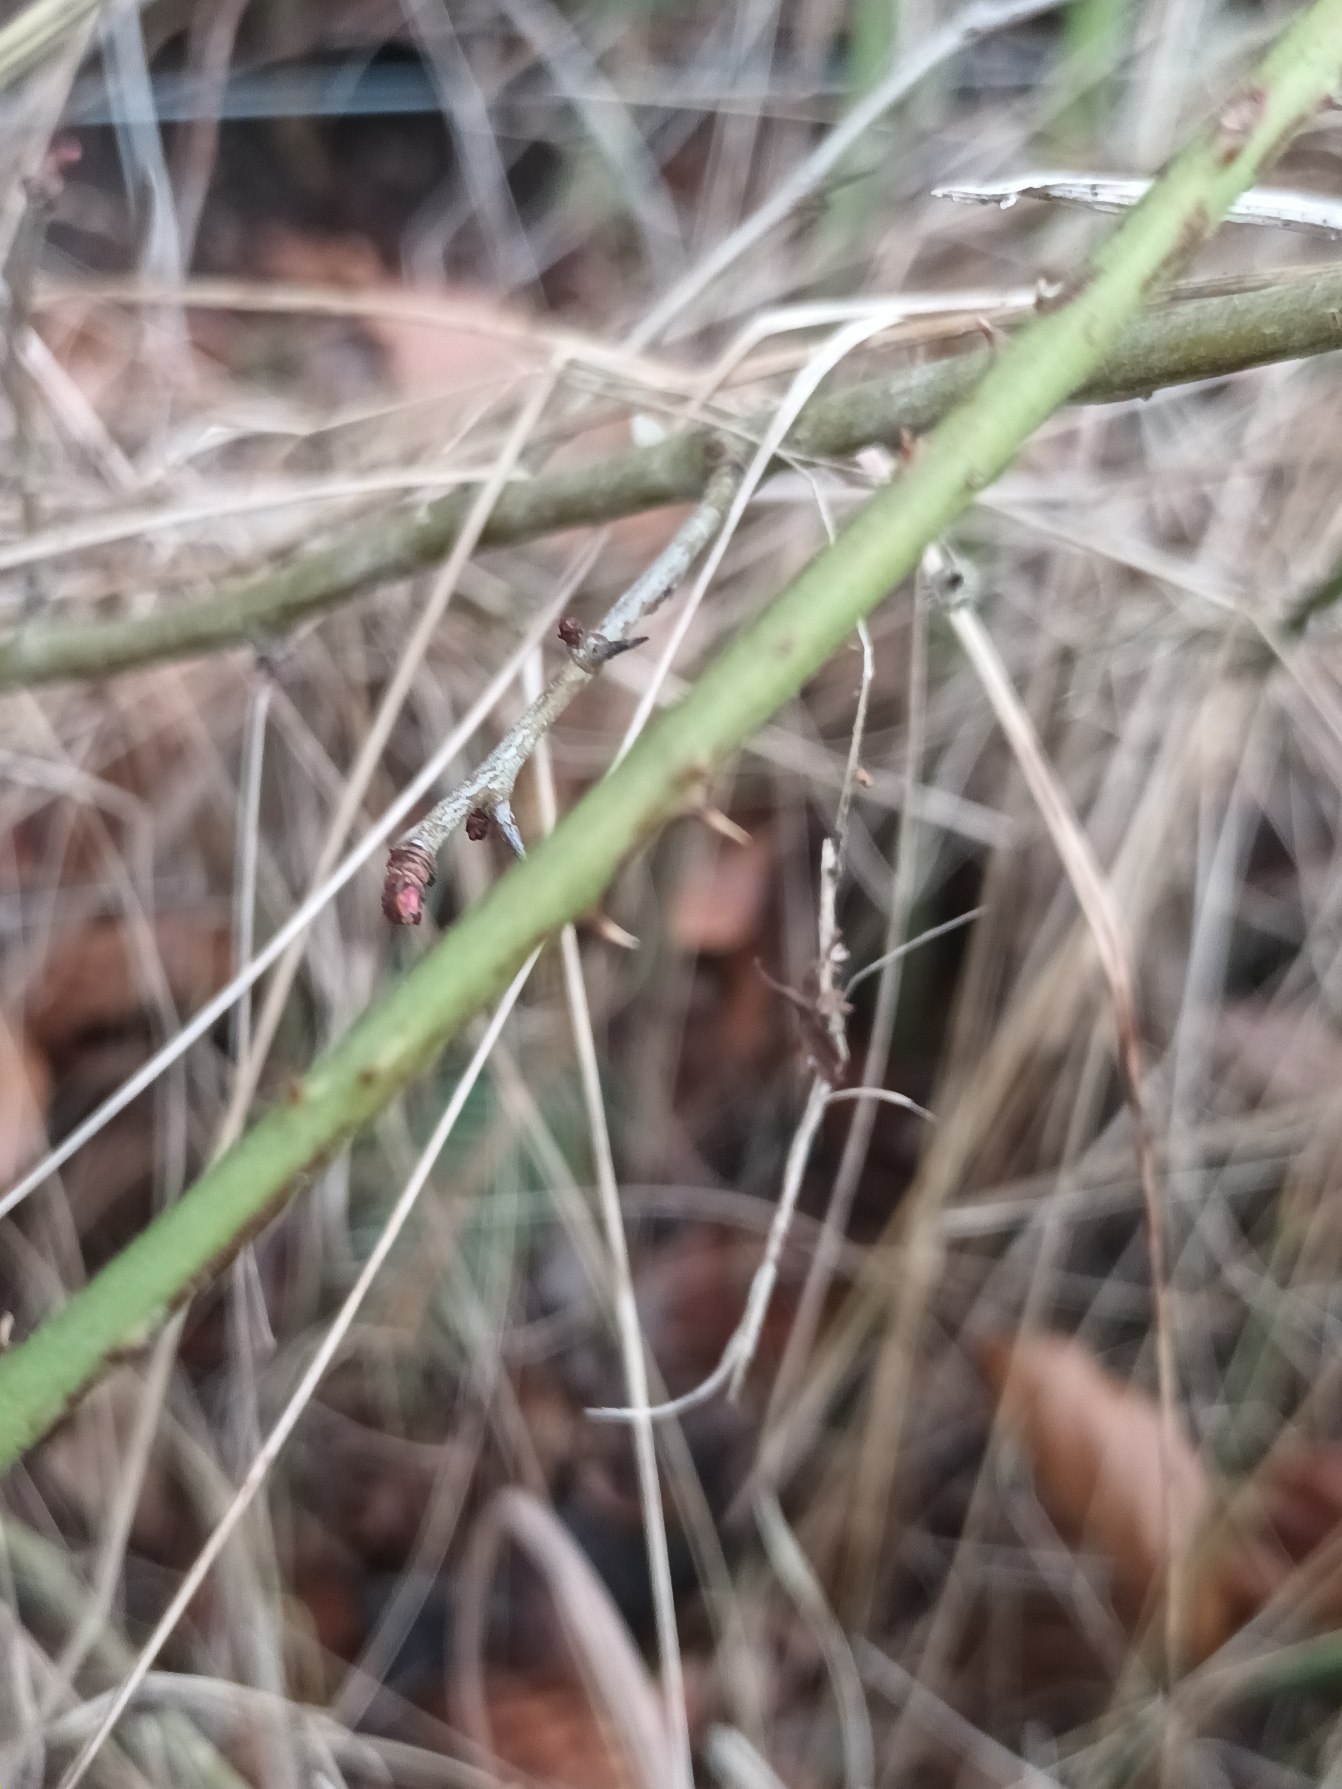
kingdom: Plantae
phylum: Tracheophyta
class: Magnoliopsida
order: Rosales
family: Rosaceae
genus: Rubus
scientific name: Rubus luminosus
